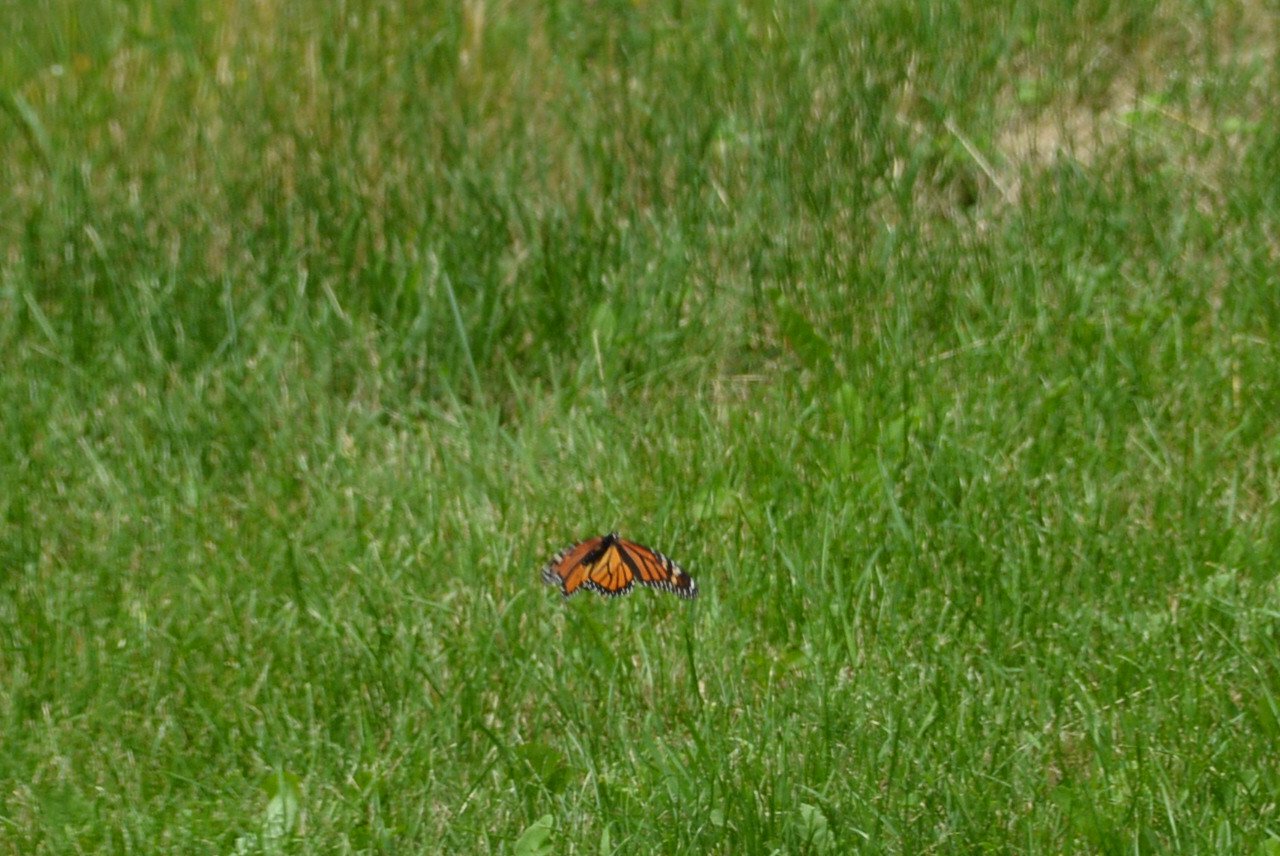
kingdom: Animalia
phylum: Arthropoda
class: Insecta
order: Lepidoptera
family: Nymphalidae
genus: Danaus
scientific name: Danaus plexippus
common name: Monarch
